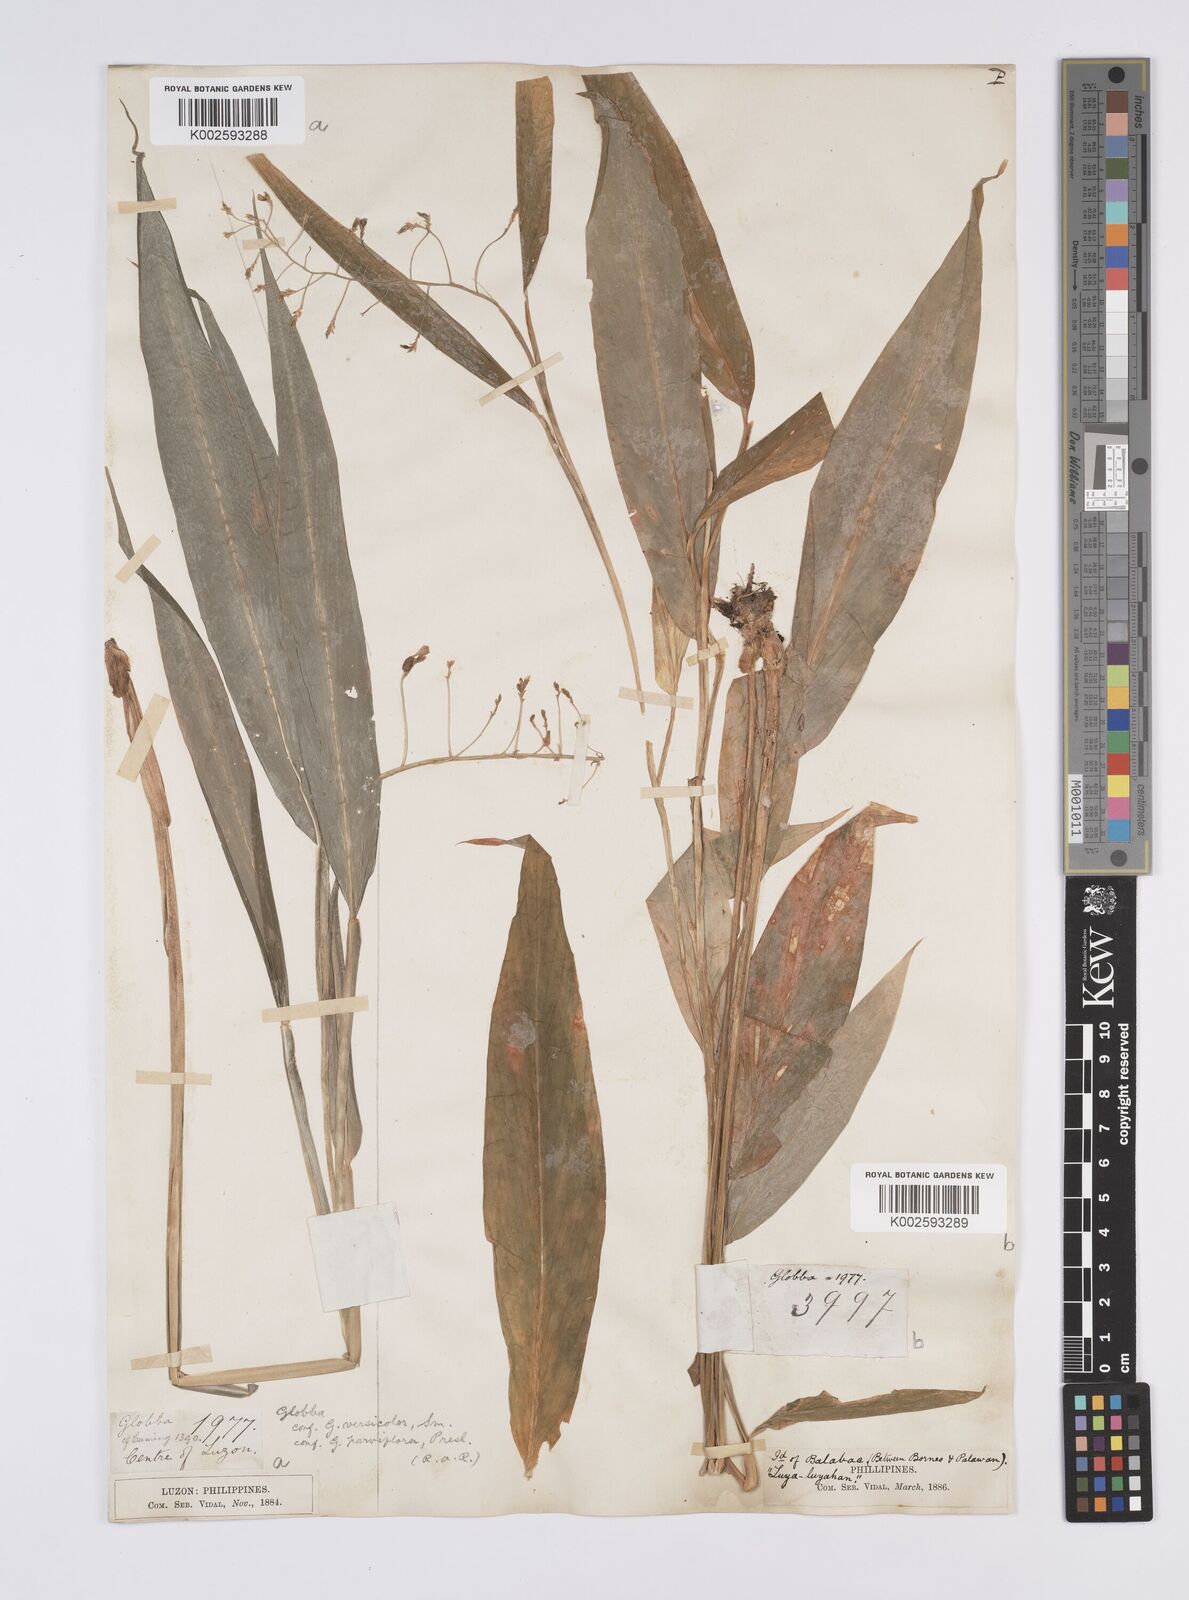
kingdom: Plantae
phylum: Tracheophyta
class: Liliopsida
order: Zingiberales
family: Zingiberaceae
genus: Globba
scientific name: Globba campsophylla
